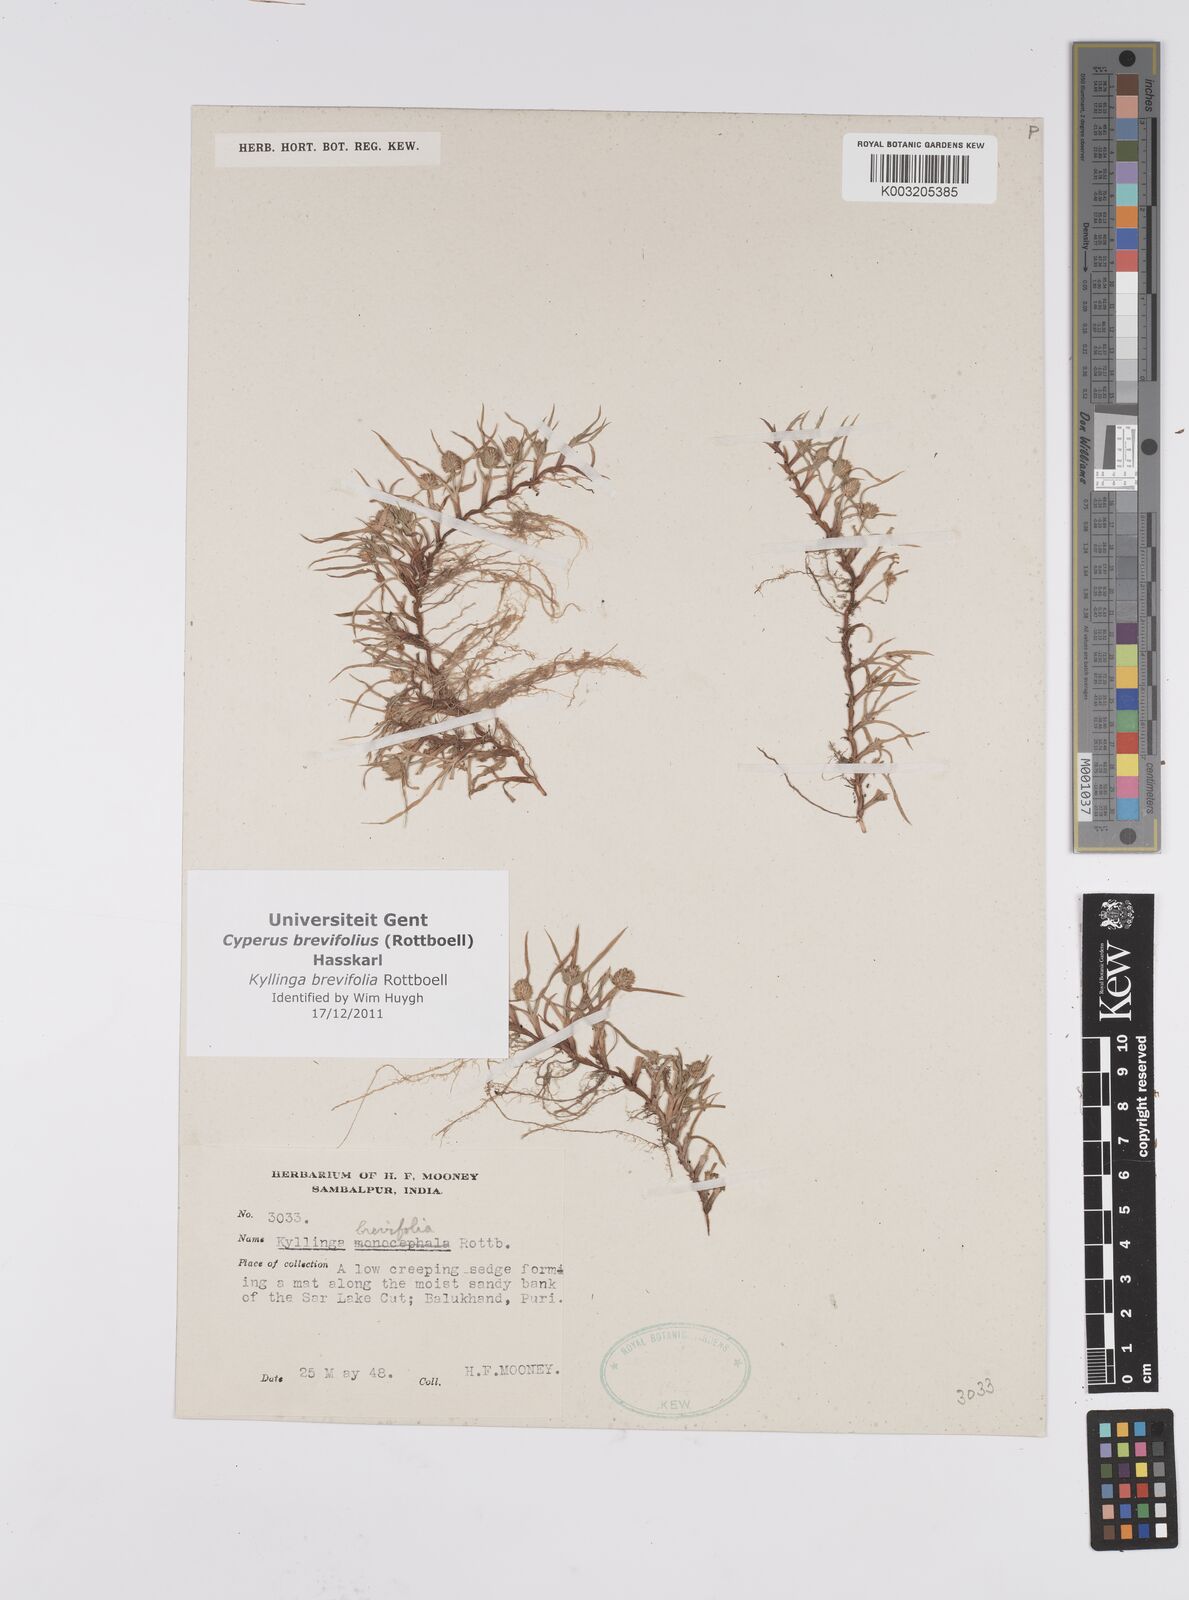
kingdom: Plantae
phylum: Tracheophyta
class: Liliopsida
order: Poales
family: Cyperaceae
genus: Cyperus
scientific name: Cyperus brevifolius
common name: Globe kyllinga
